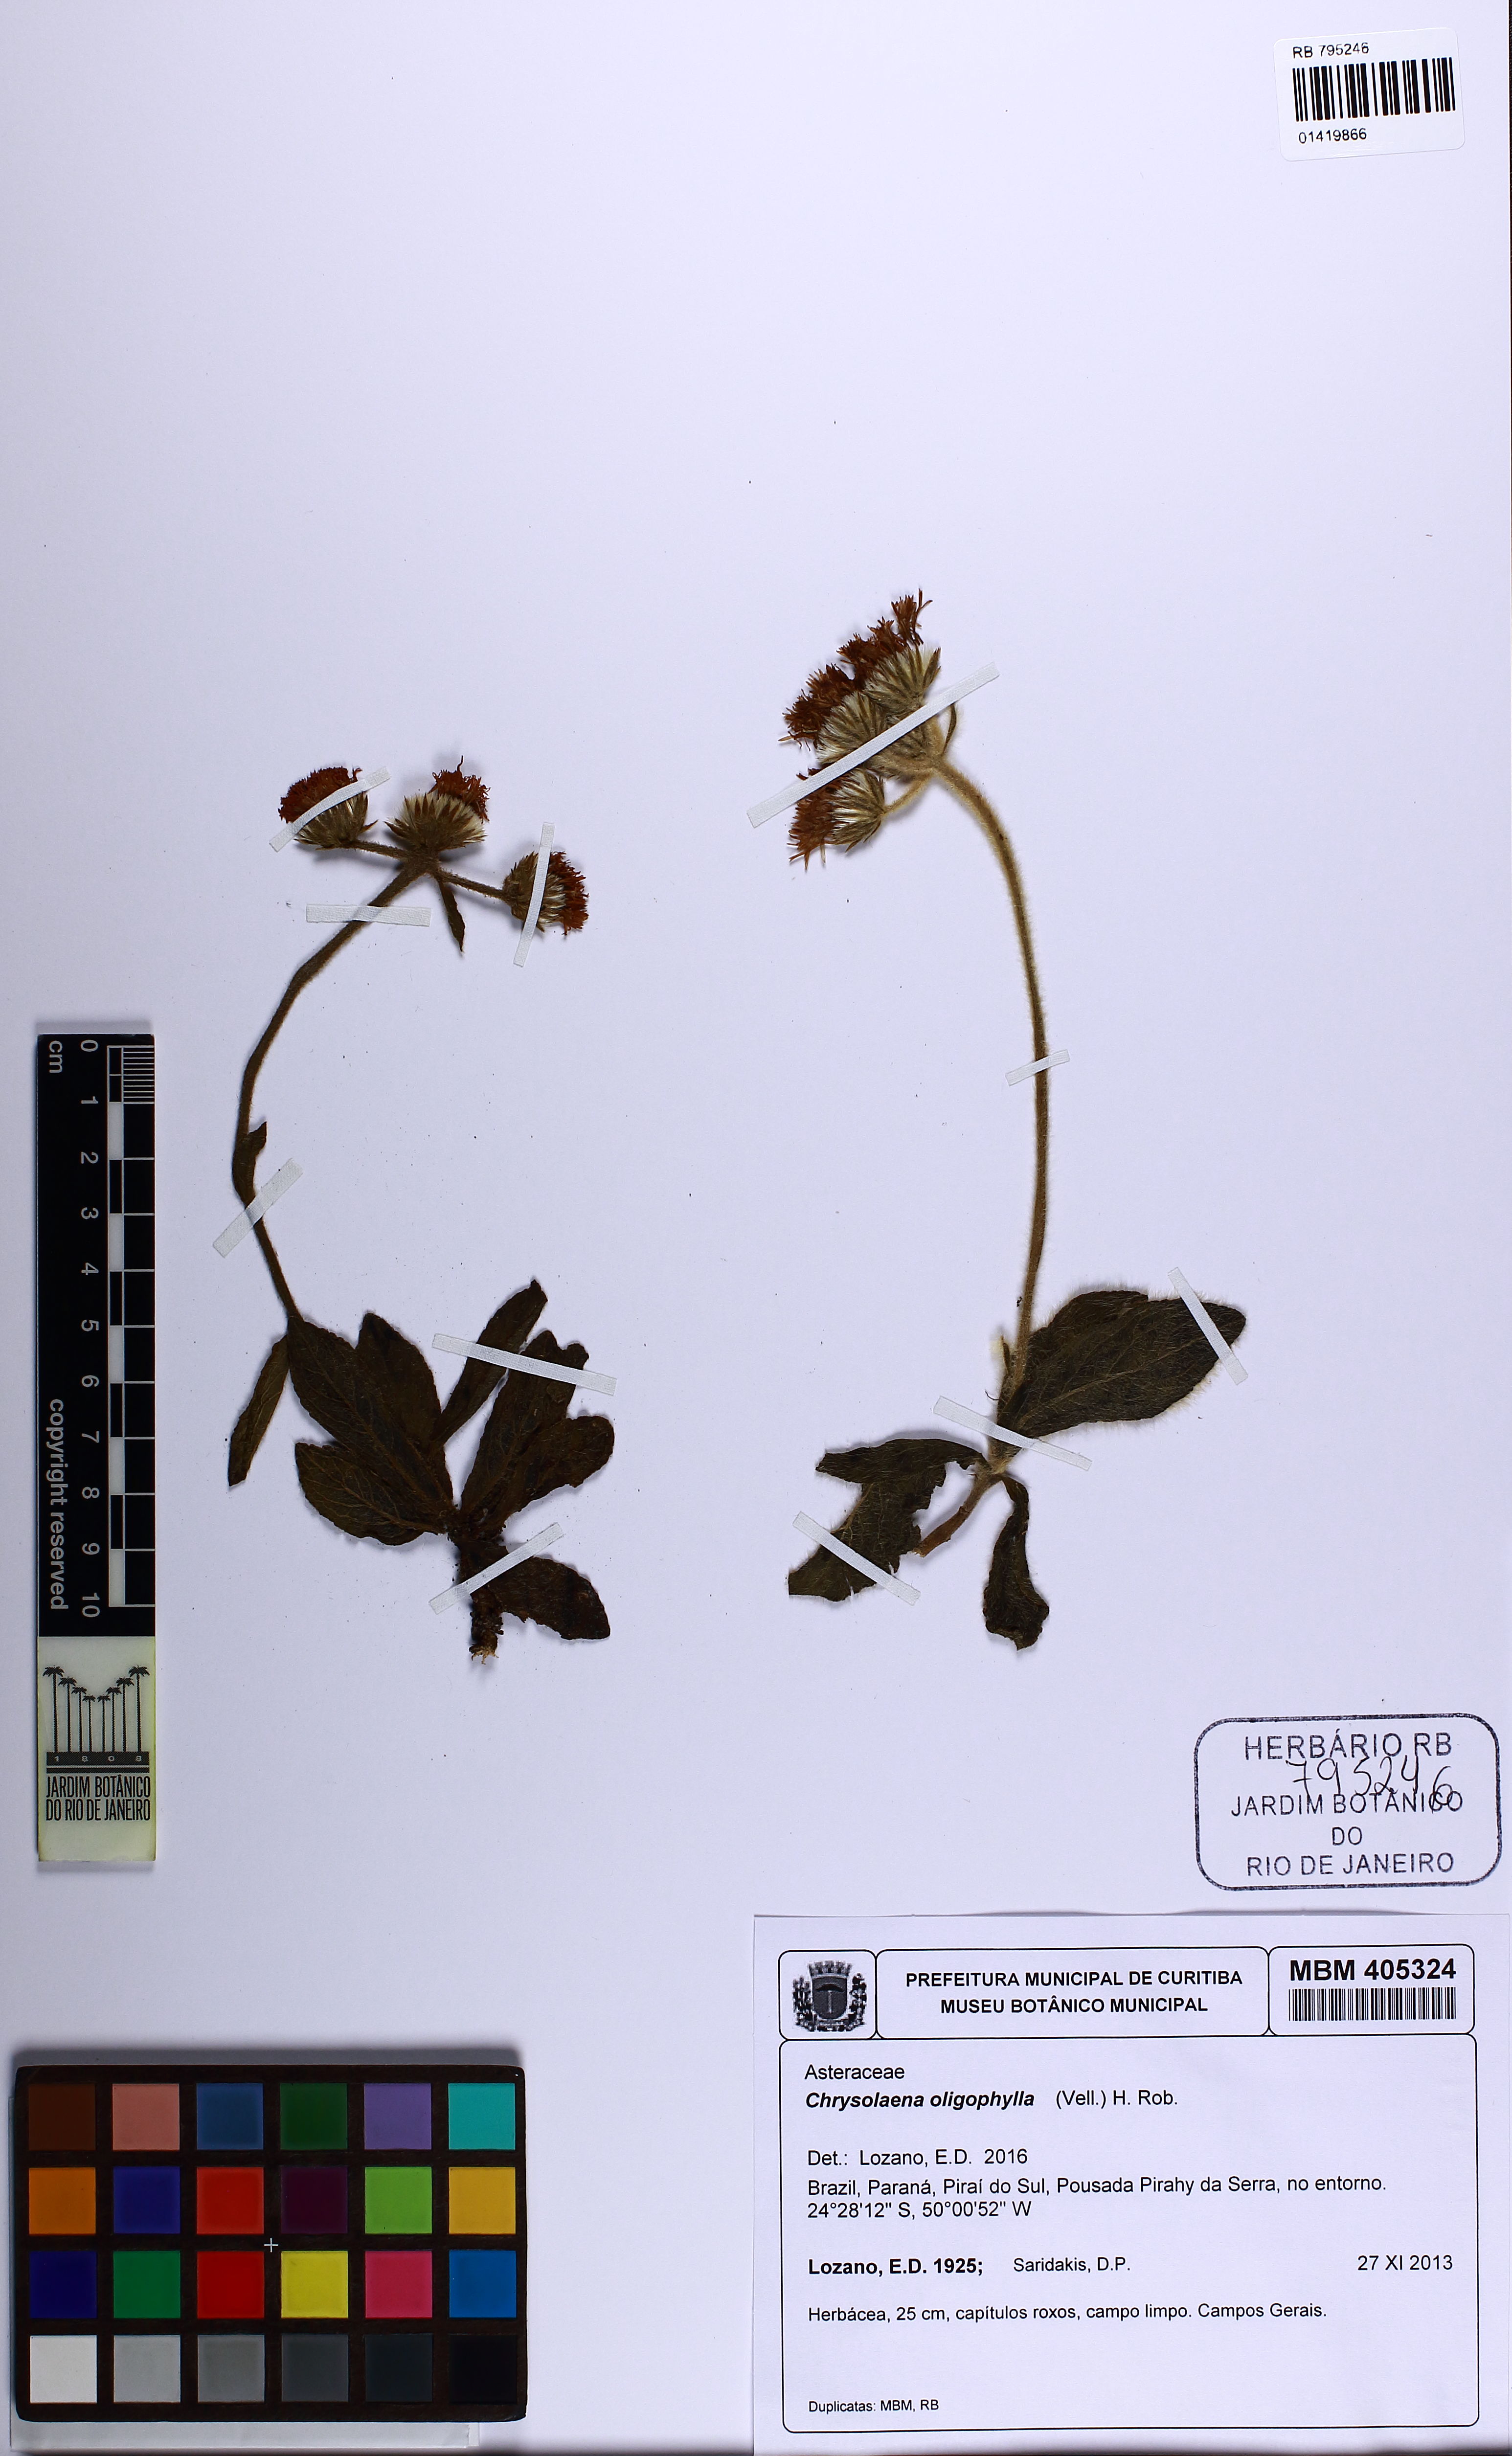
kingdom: Plantae
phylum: Tracheophyta
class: Magnoliopsida
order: Asterales
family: Asteraceae
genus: Chrysolaena
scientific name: Chrysolaena oligophylla
